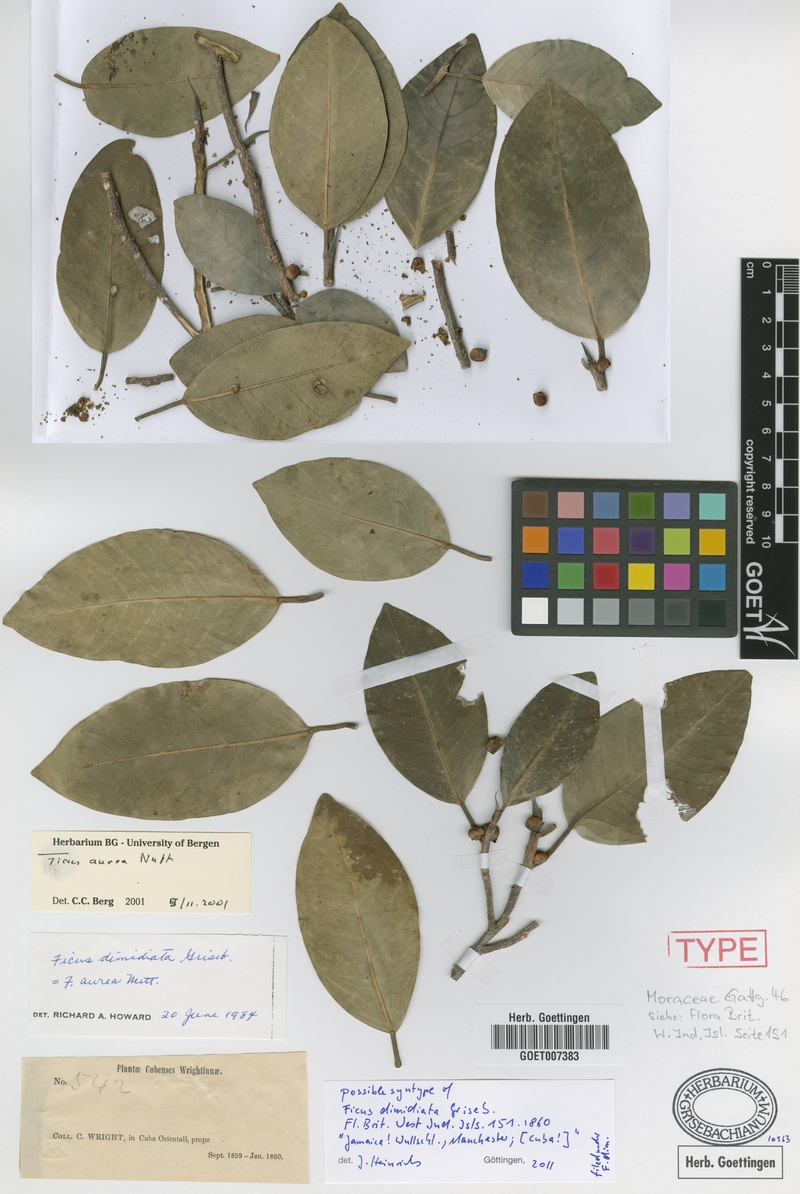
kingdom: Plantae
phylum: Tracheophyta
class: Magnoliopsida
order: Rosales
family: Moraceae
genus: Ficus
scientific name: Ficus aurea
